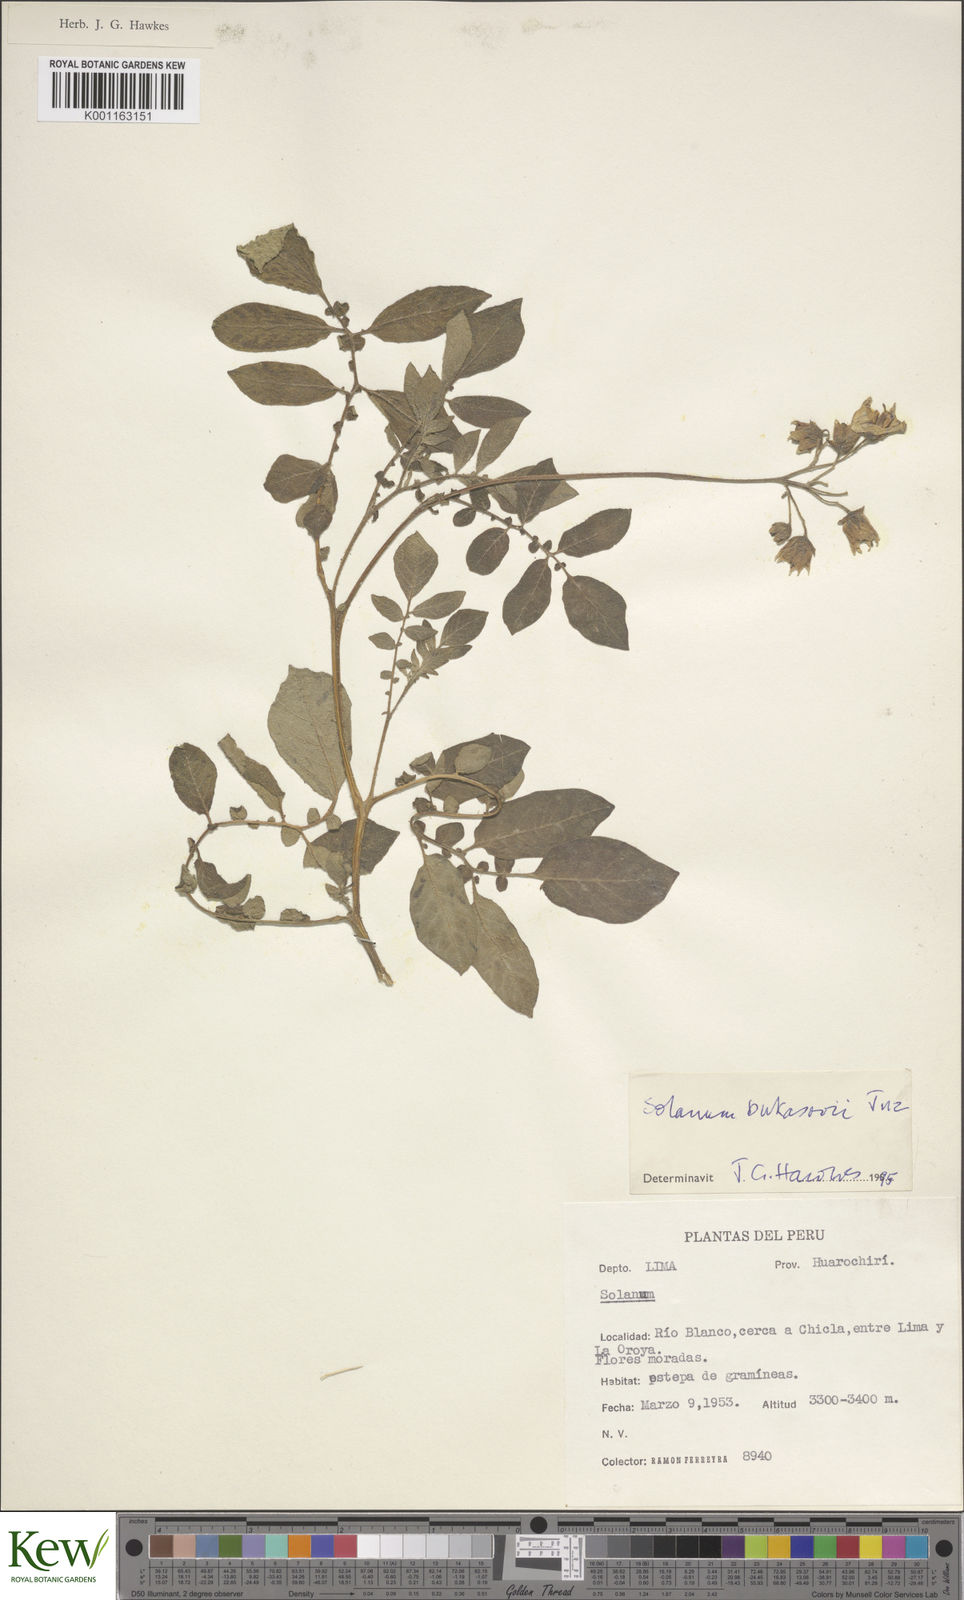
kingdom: Plantae
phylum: Tracheophyta
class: Magnoliopsida
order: Solanales
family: Solanaceae
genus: Solanum
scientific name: Solanum candolleanum
